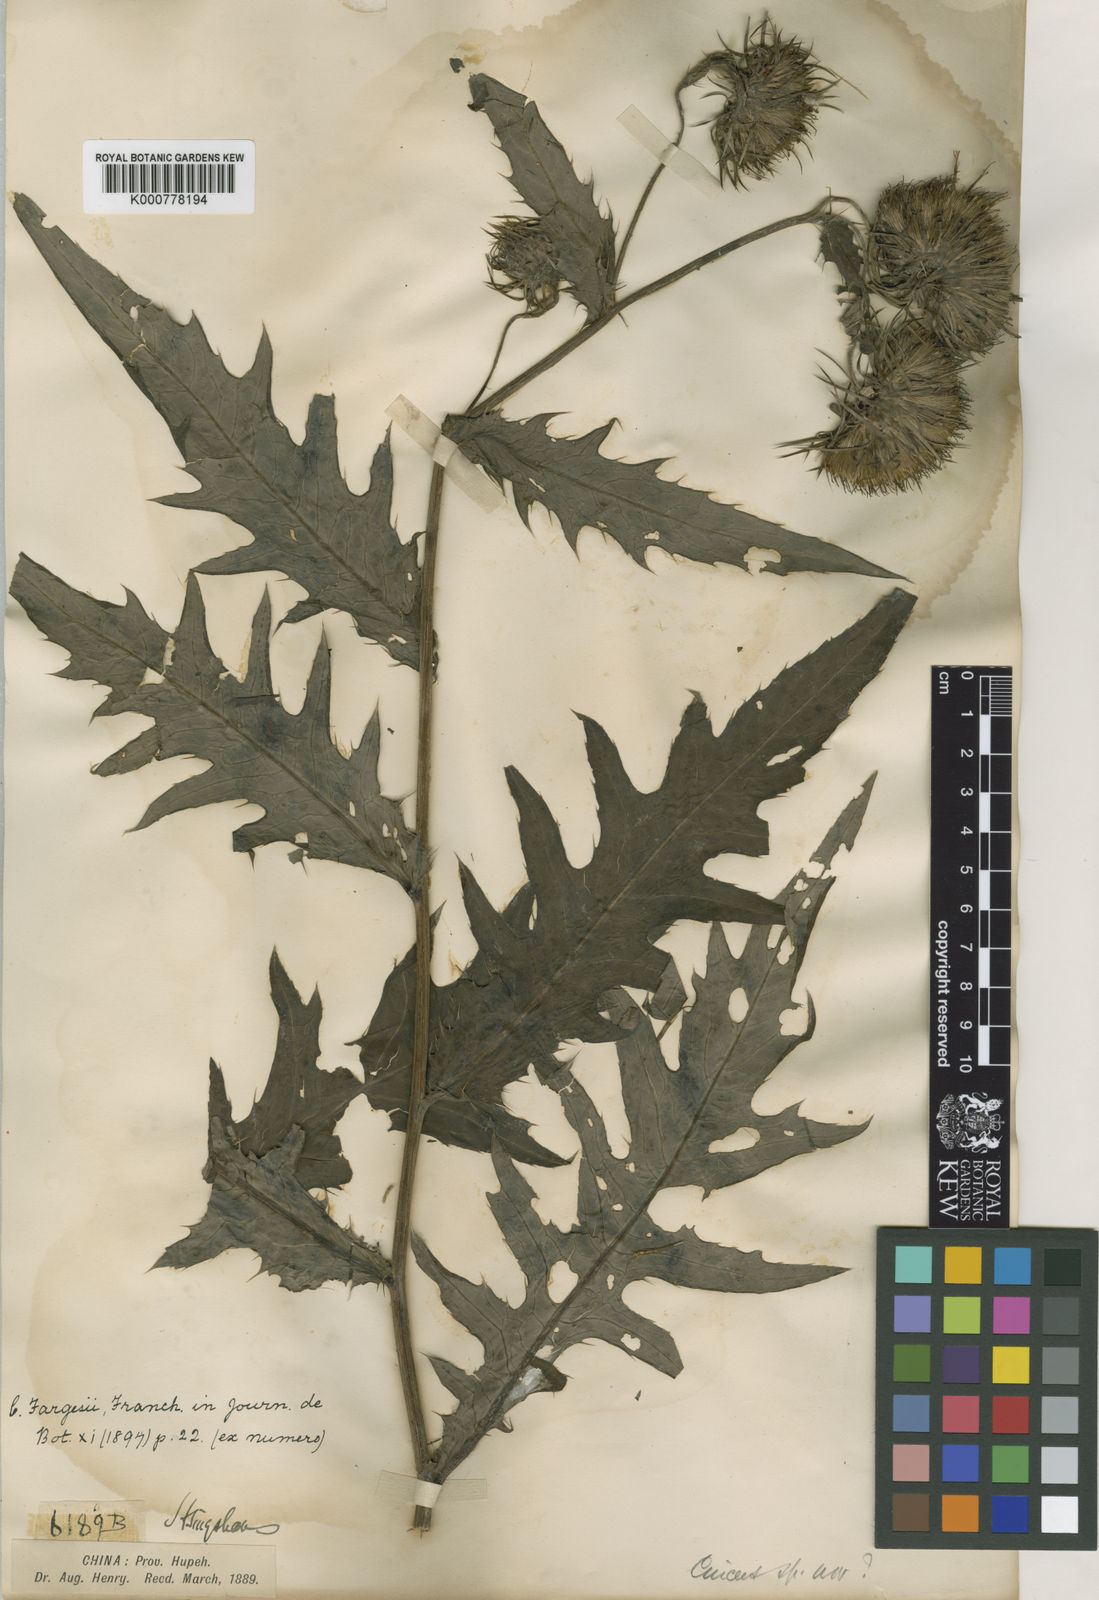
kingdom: Plantae
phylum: Tracheophyta
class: Magnoliopsida
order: Asterales
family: Asteraceae
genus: Cirsium
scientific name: Cirsium fargesii
